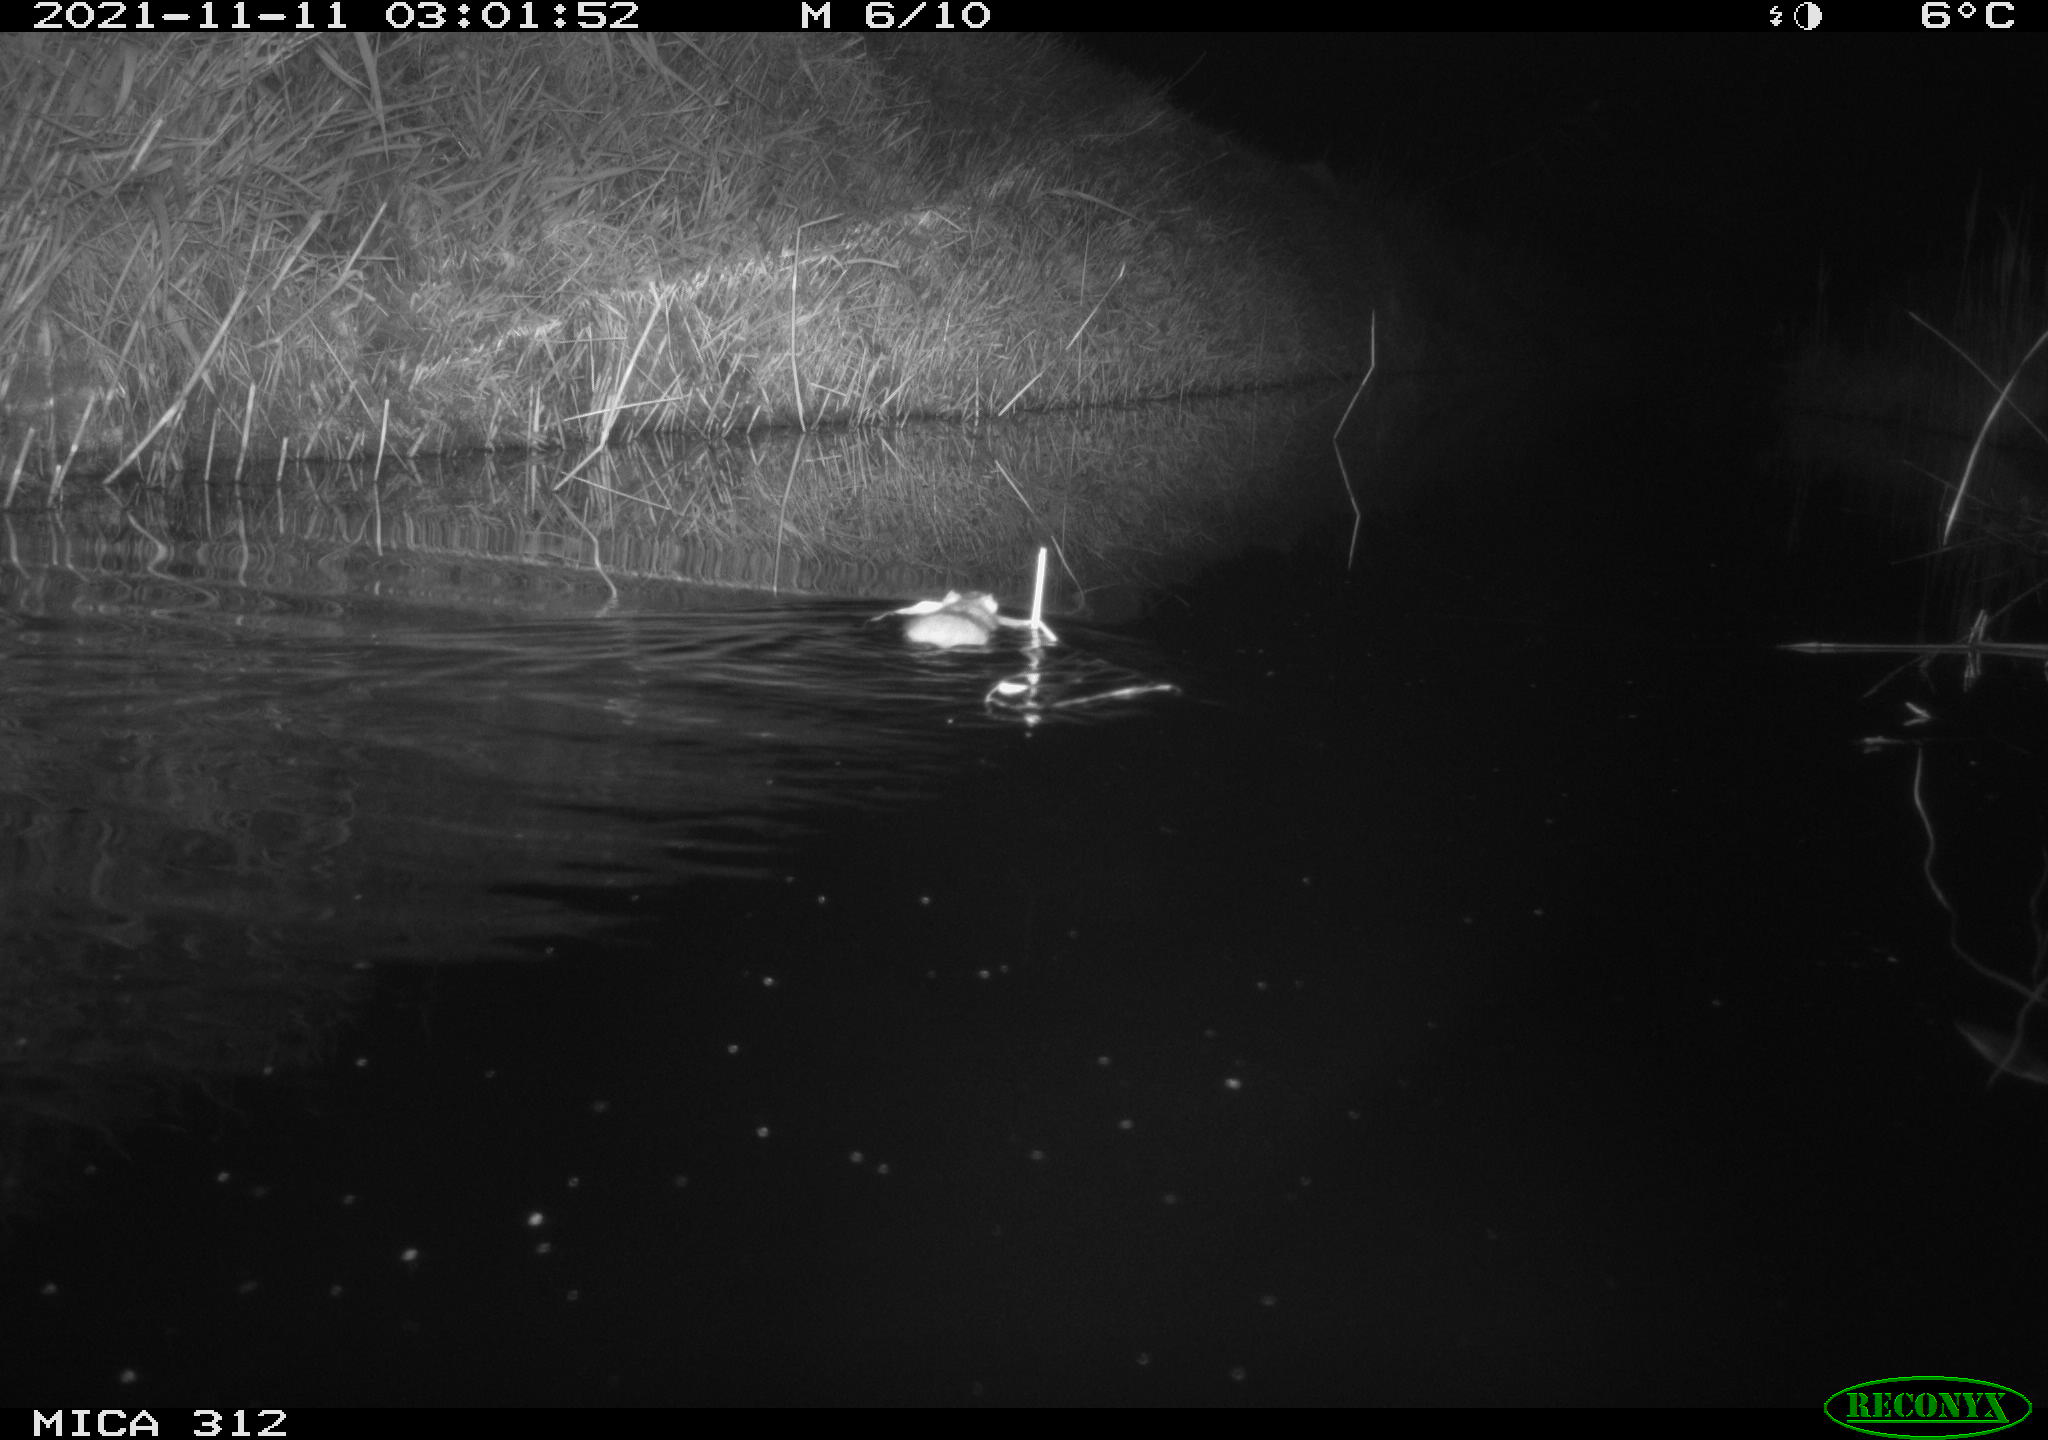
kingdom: Animalia
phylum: Chordata
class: Aves
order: Anseriformes
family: Anatidae
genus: Anas
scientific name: Anas
